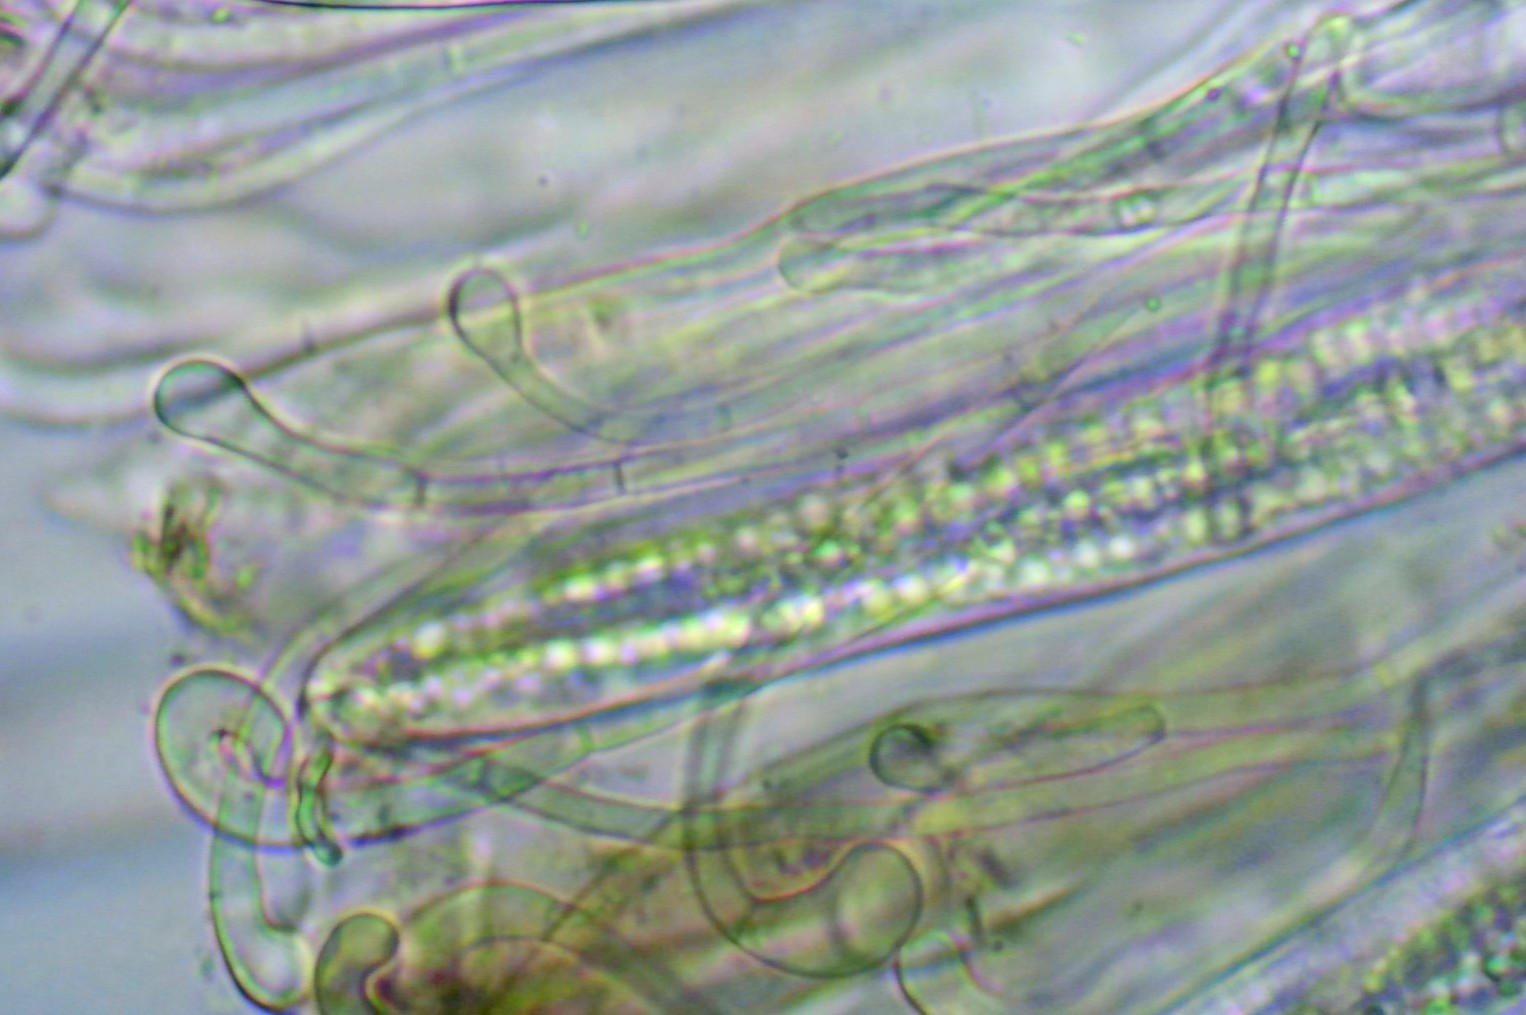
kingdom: Fungi
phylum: Ascomycota
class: Geoglossomycetes
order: Geoglossales
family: Geoglossaceae
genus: Geoglossum
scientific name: Geoglossum fallax
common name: småskællet jordtunge
